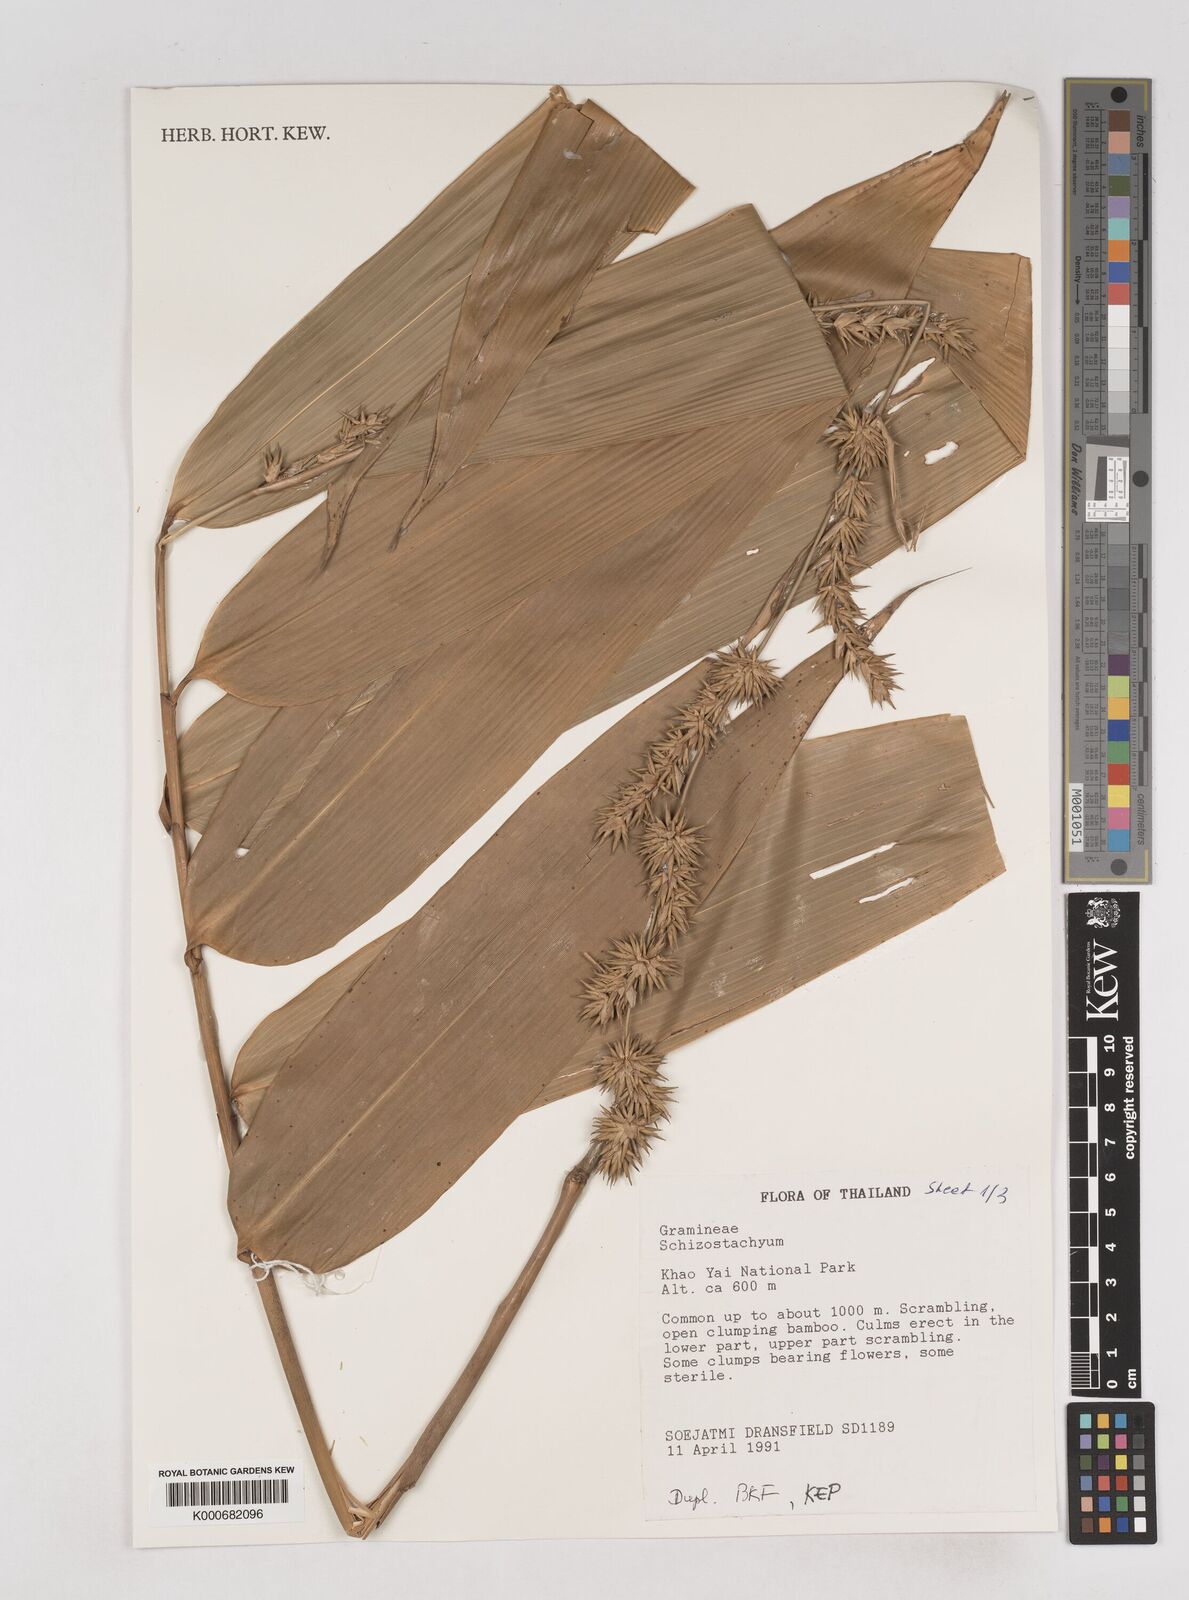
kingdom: Plantae
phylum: Tracheophyta
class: Liliopsida
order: Poales
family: Poaceae
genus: Schizostachyum
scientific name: Schizostachyum
